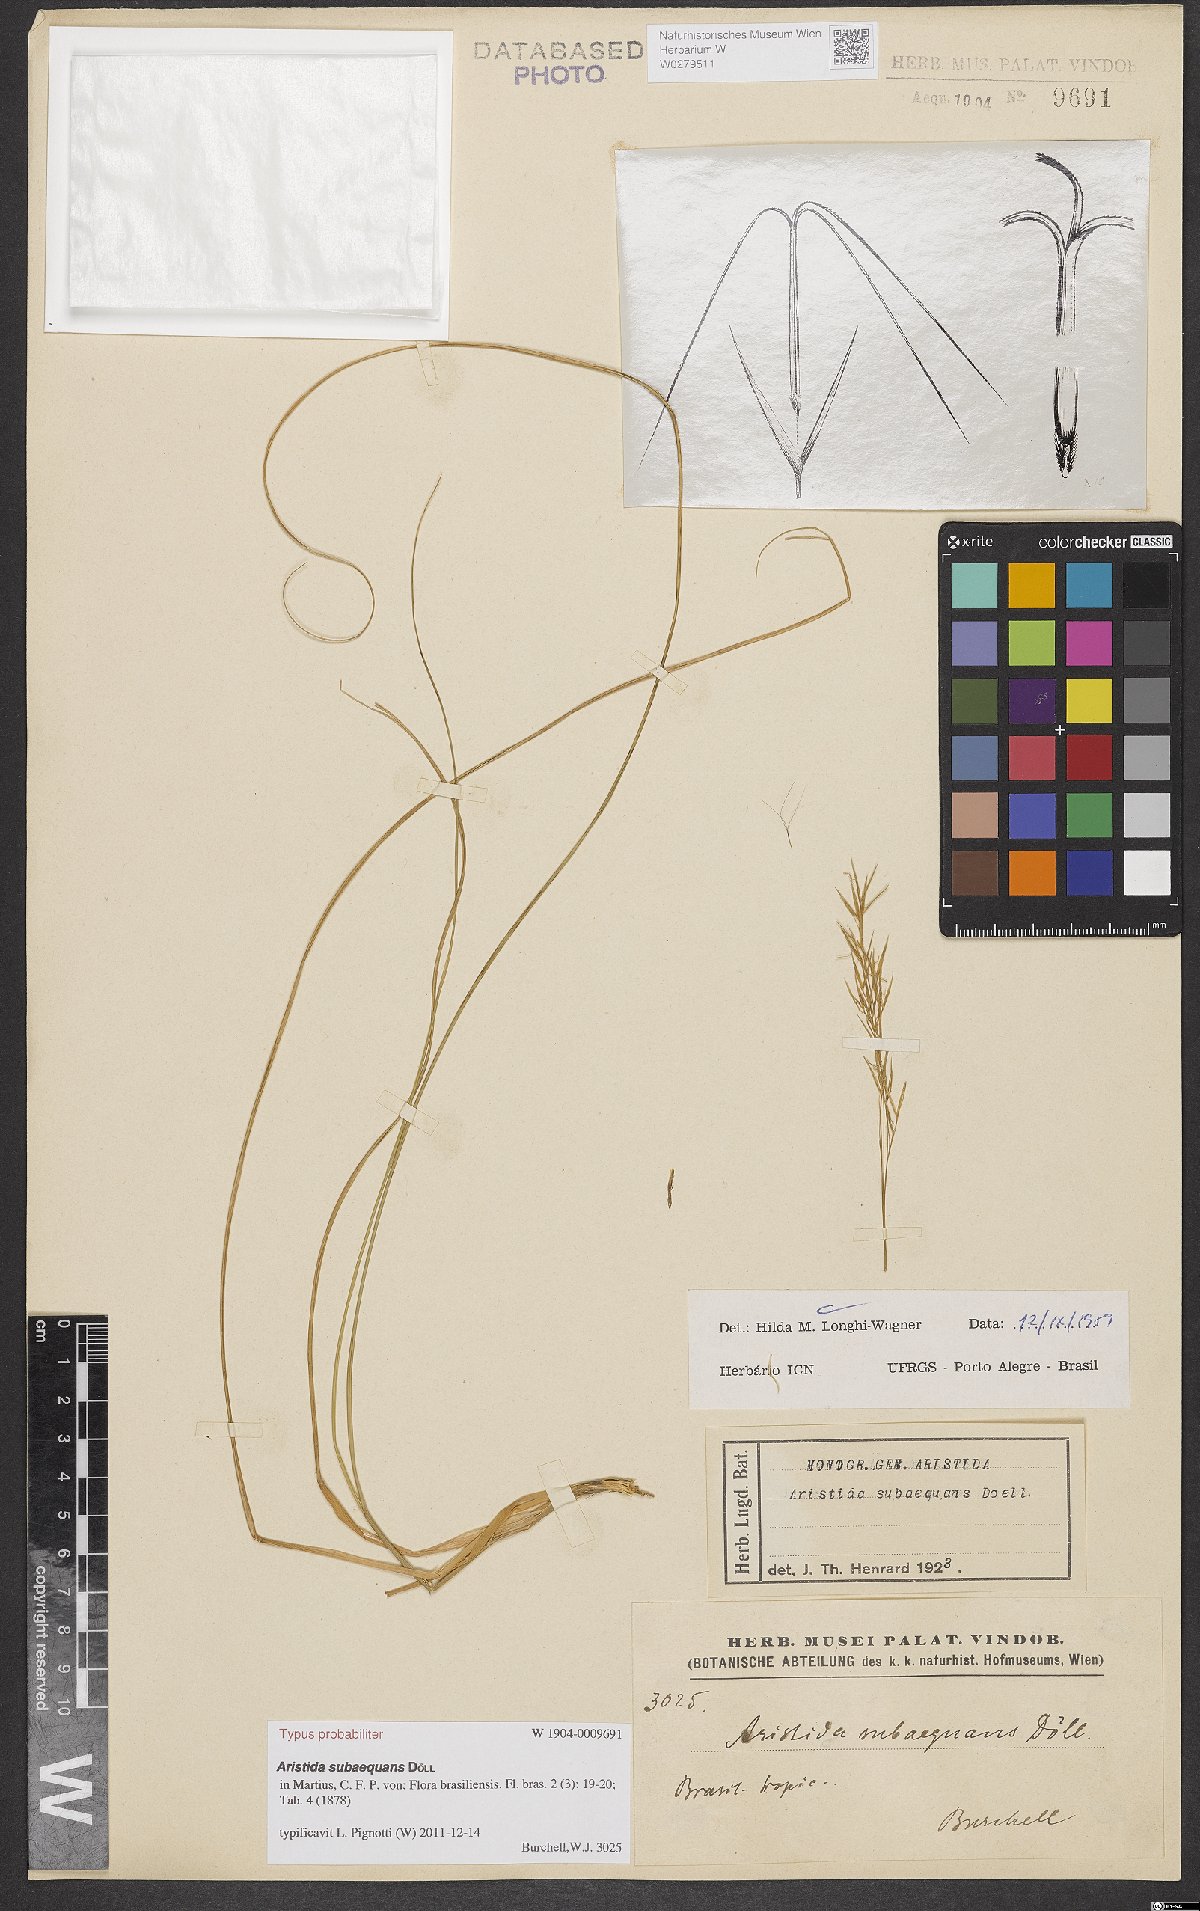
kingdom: Plantae
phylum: Tracheophyta
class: Liliopsida
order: Poales
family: Poaceae
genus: Aristida
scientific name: Aristida subaequans
